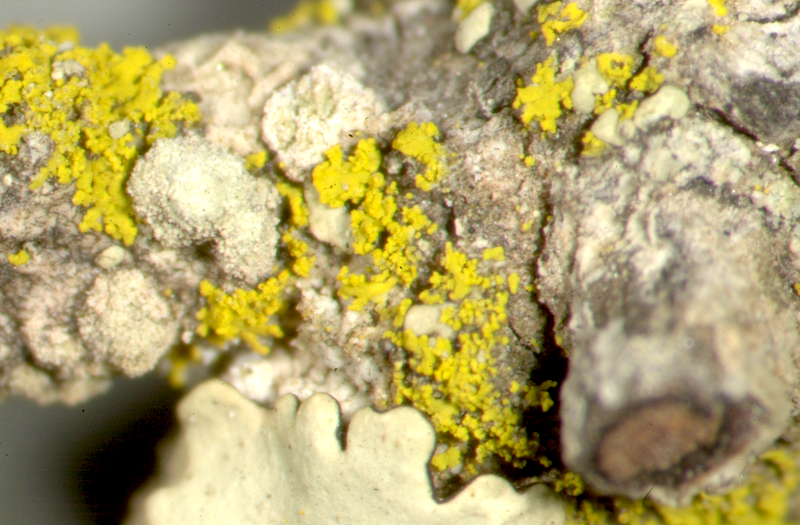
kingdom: Fungi
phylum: Ascomycota
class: Lecanoromycetes
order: Pertusariales
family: Pertusariaceae
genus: Pertusaria
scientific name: Pertusaria
